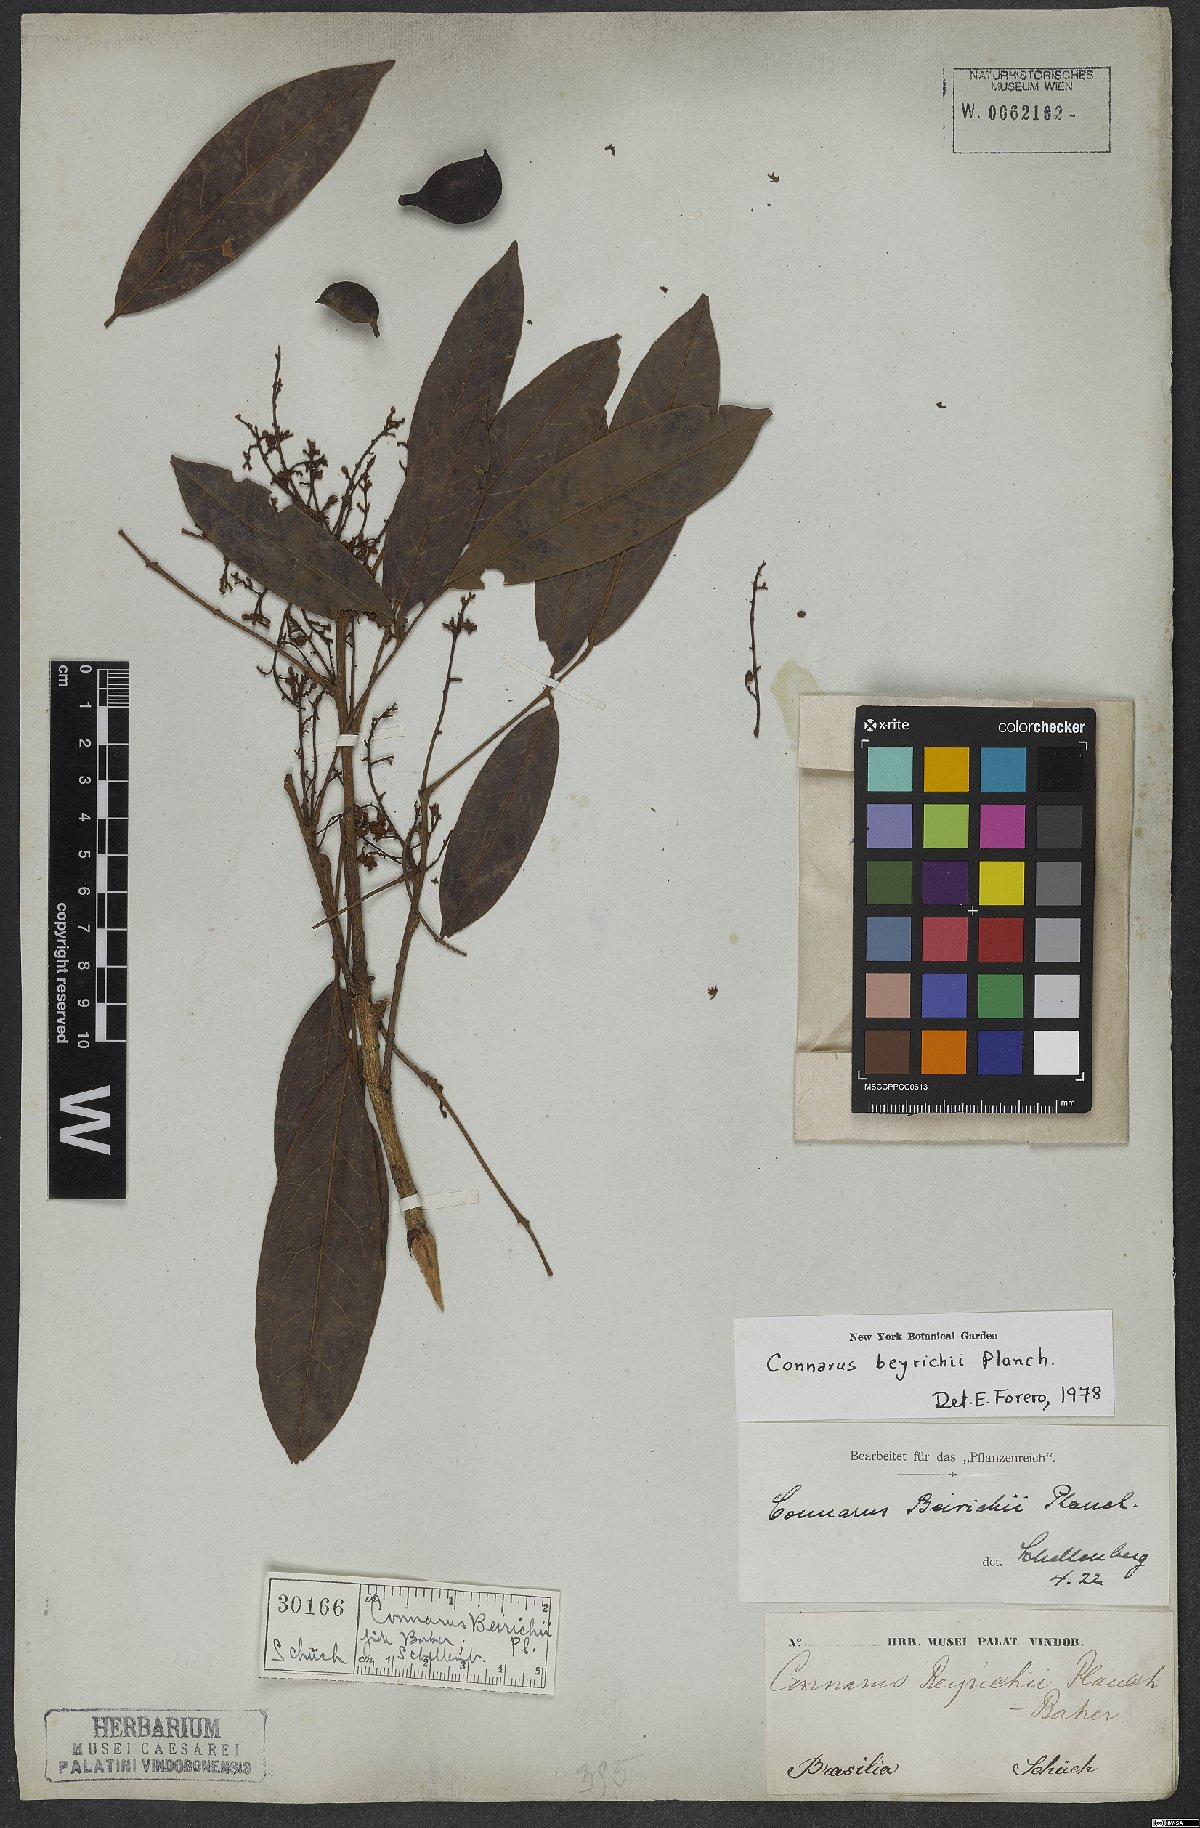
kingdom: Plantae
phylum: Tracheophyta
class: Magnoliopsida
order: Oxalidales
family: Connaraceae
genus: Connarus
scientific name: Connarus beyrichii
